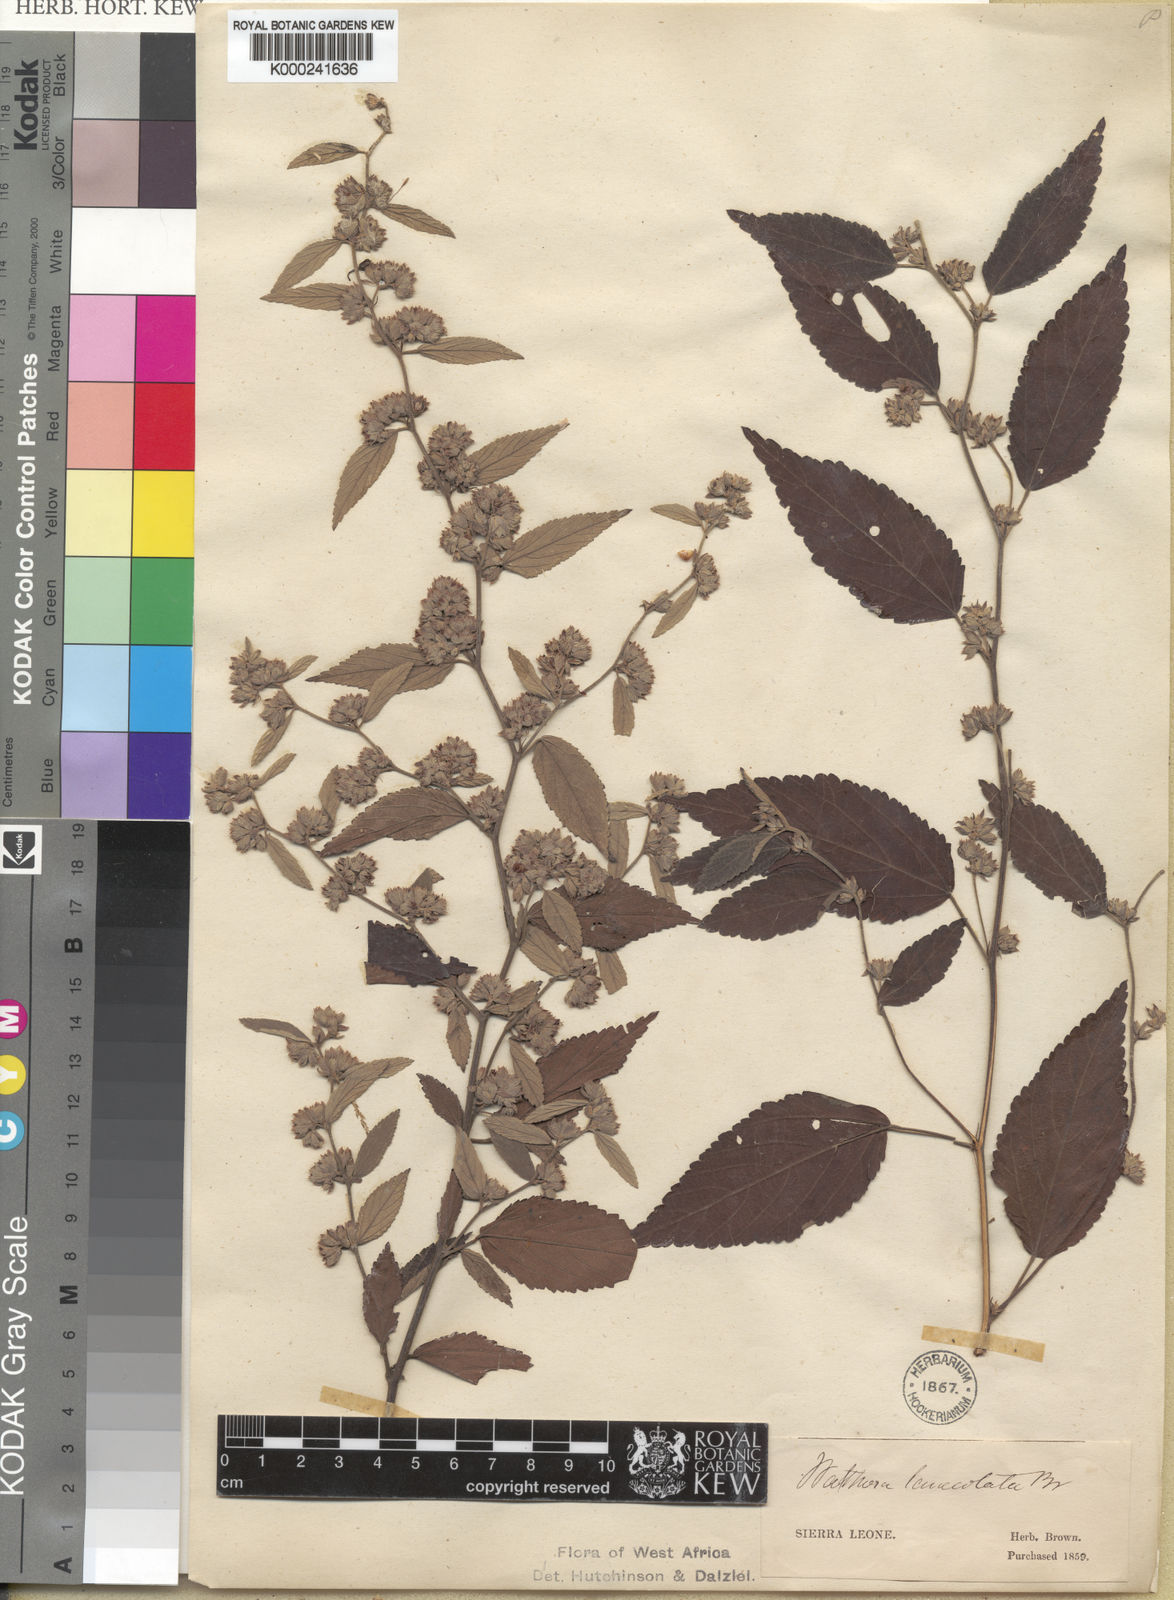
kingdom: Plantae
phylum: Tracheophyta
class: Magnoliopsida
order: Malvales
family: Malvaceae
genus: Waltheria
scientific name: Waltheria lanceolata
